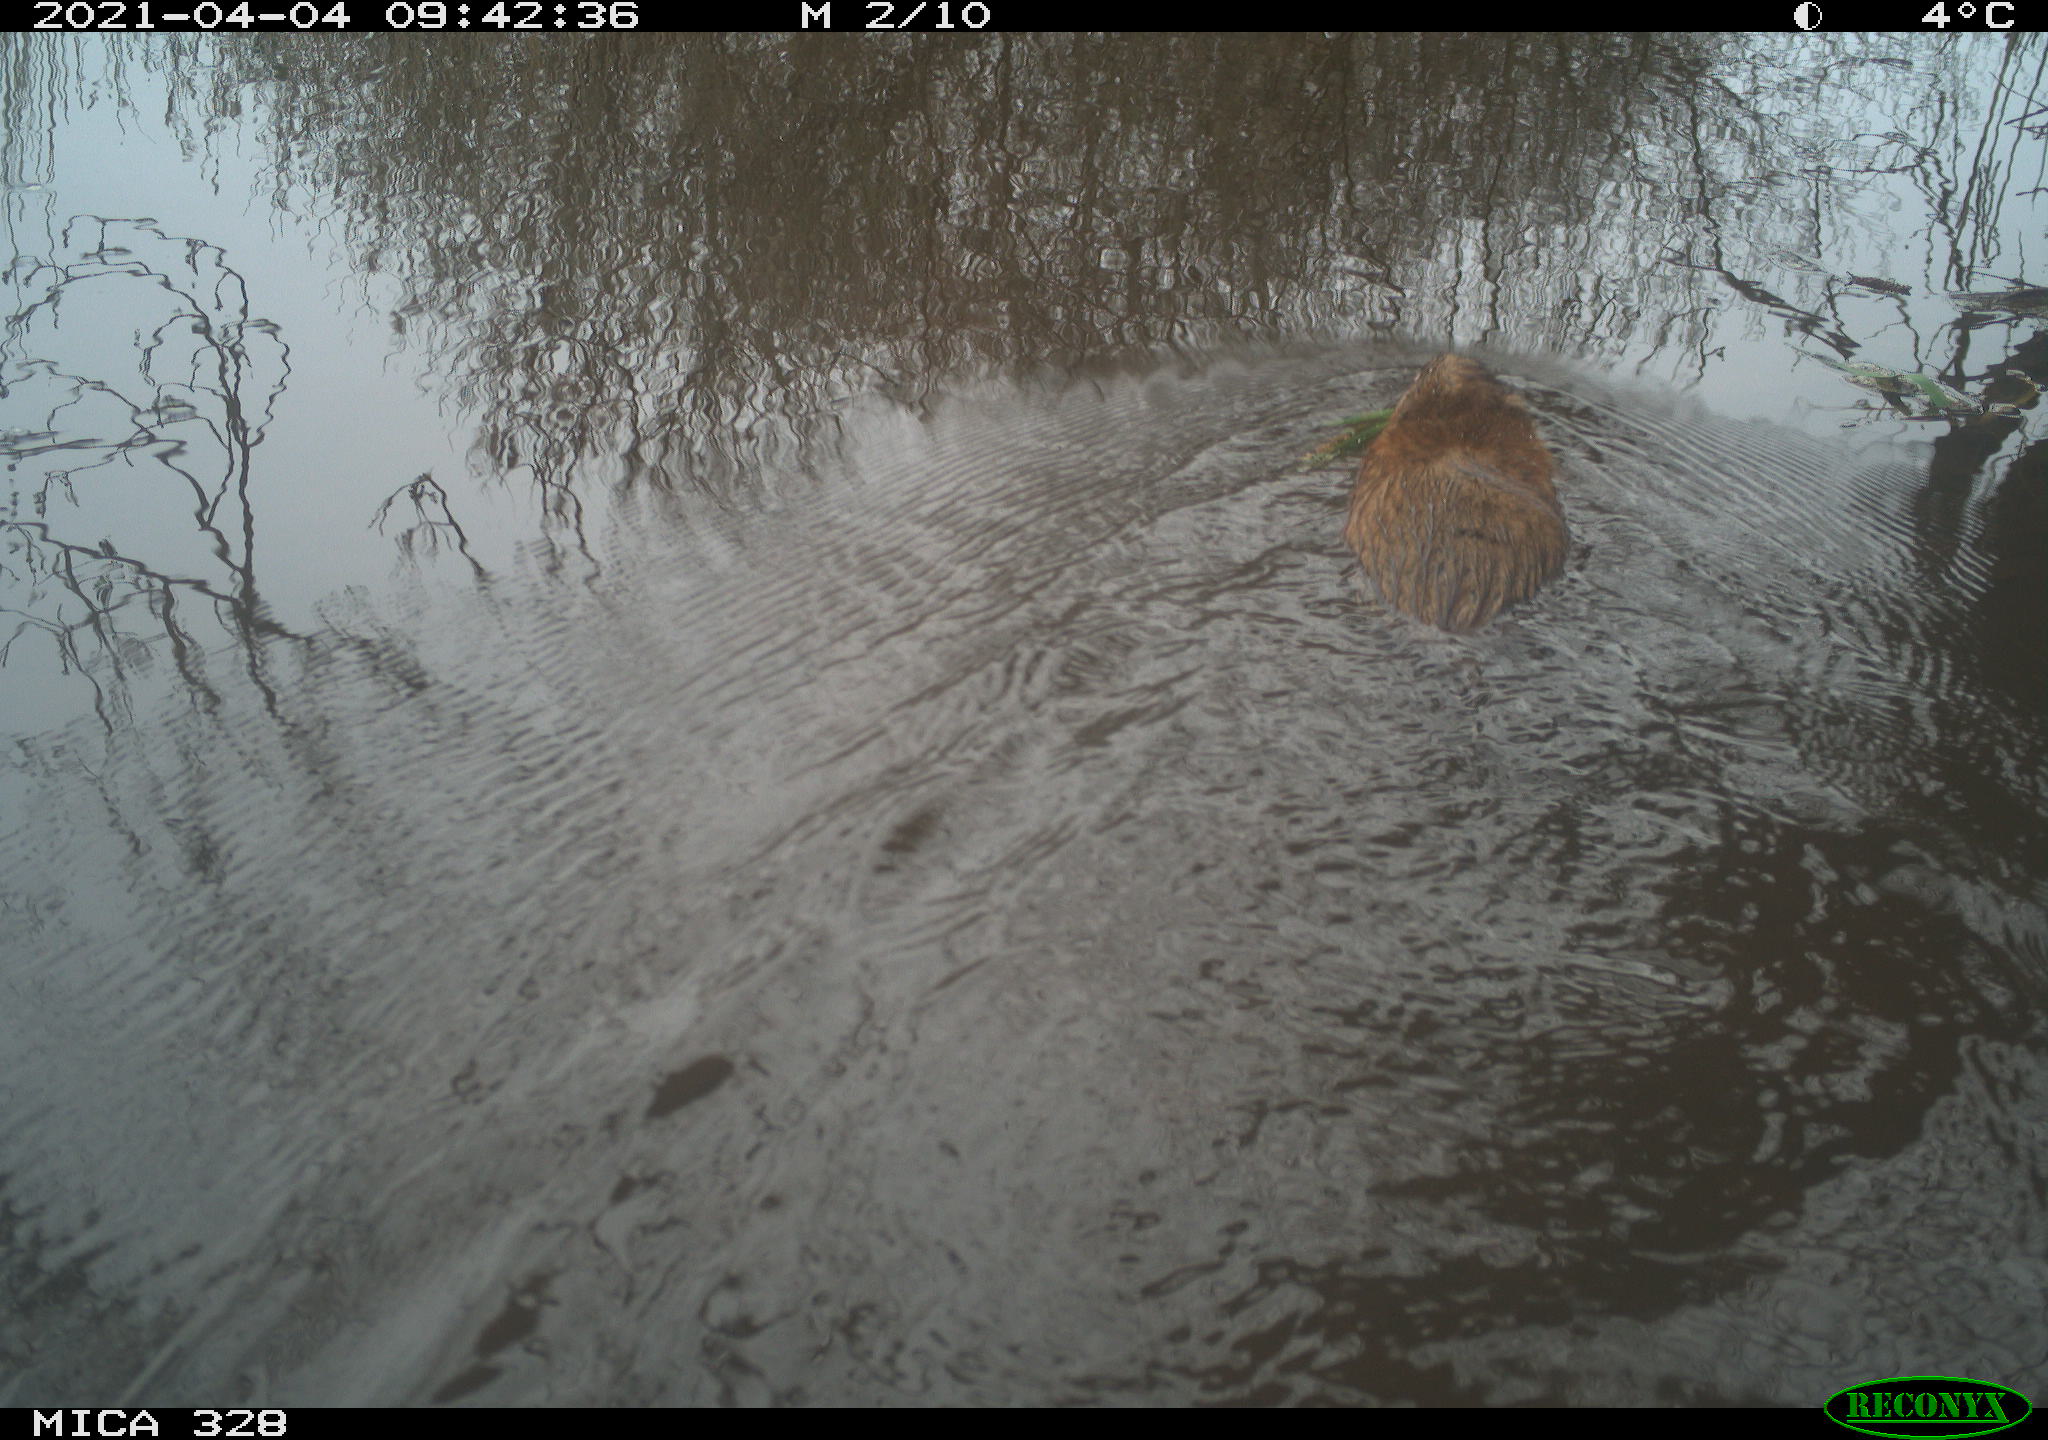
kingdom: Animalia
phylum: Chordata
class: Mammalia
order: Rodentia
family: Cricetidae
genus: Ondatra
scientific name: Ondatra zibethicus
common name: Muskrat
